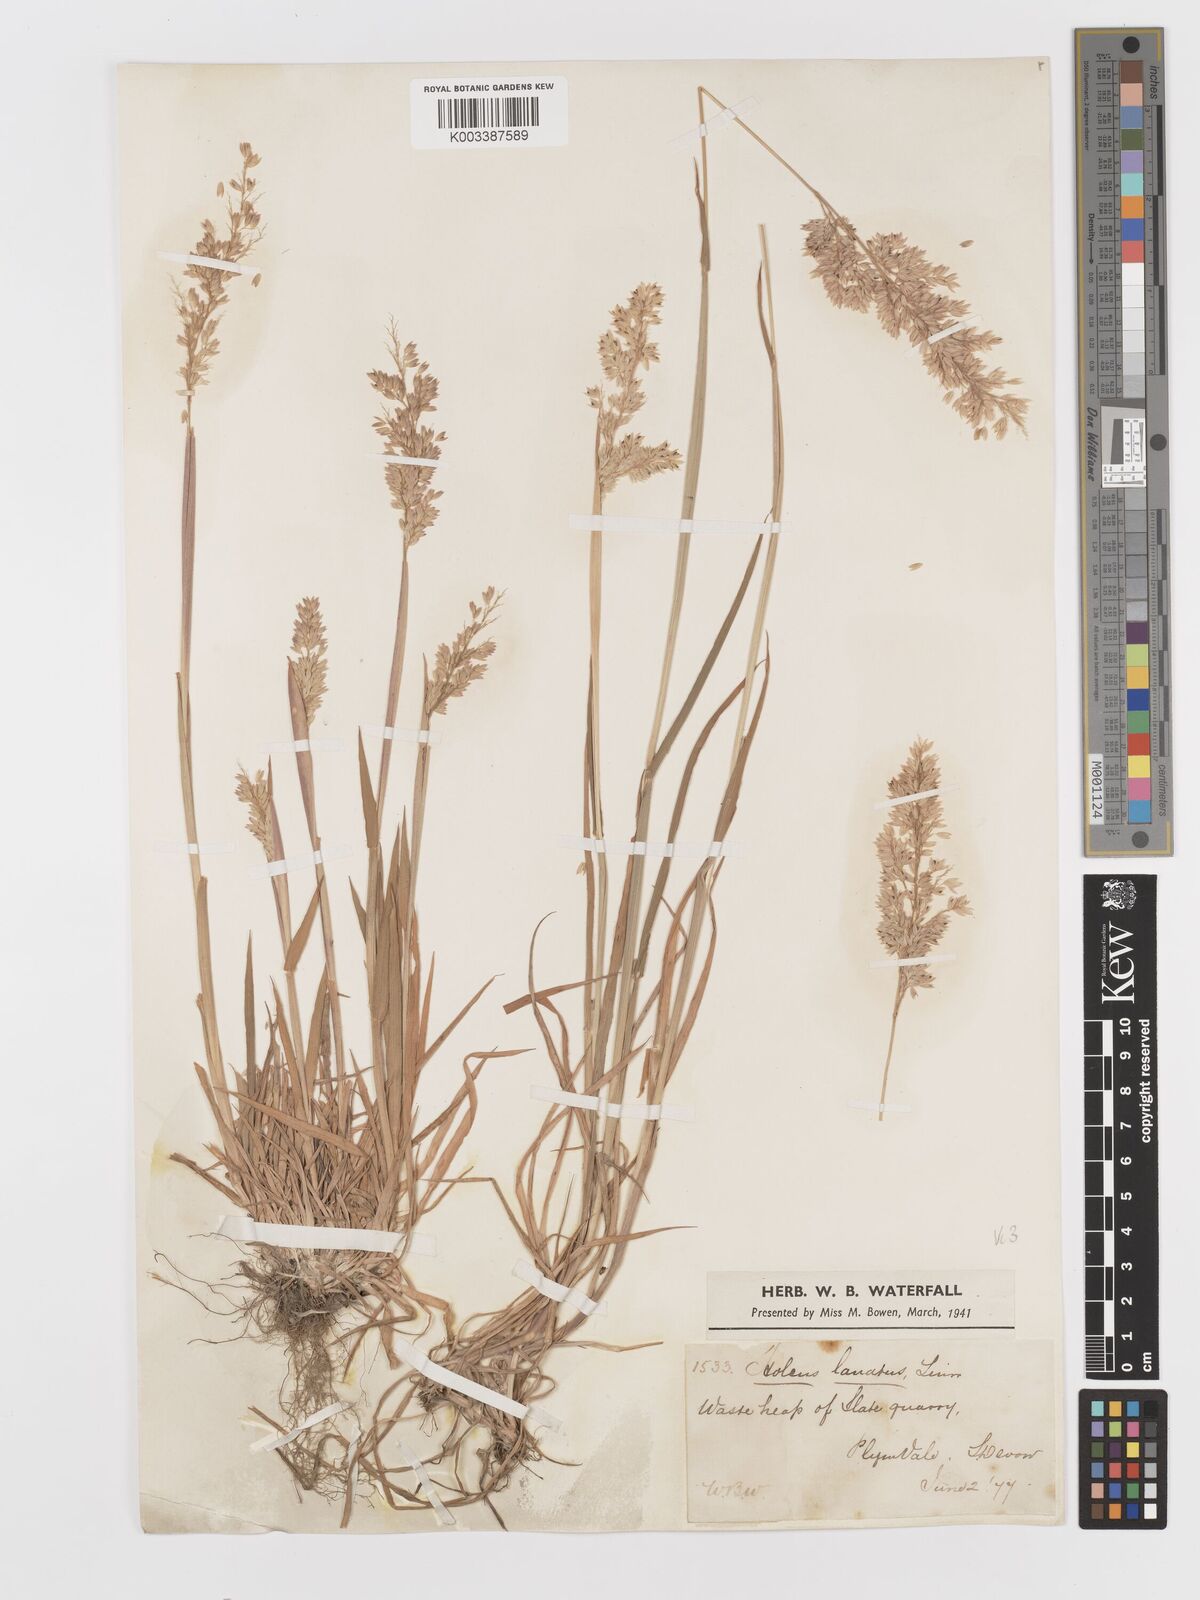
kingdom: Plantae
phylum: Tracheophyta
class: Liliopsida
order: Poales
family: Poaceae
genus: Holcus
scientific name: Holcus lanatus
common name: Yorkshire-fog
